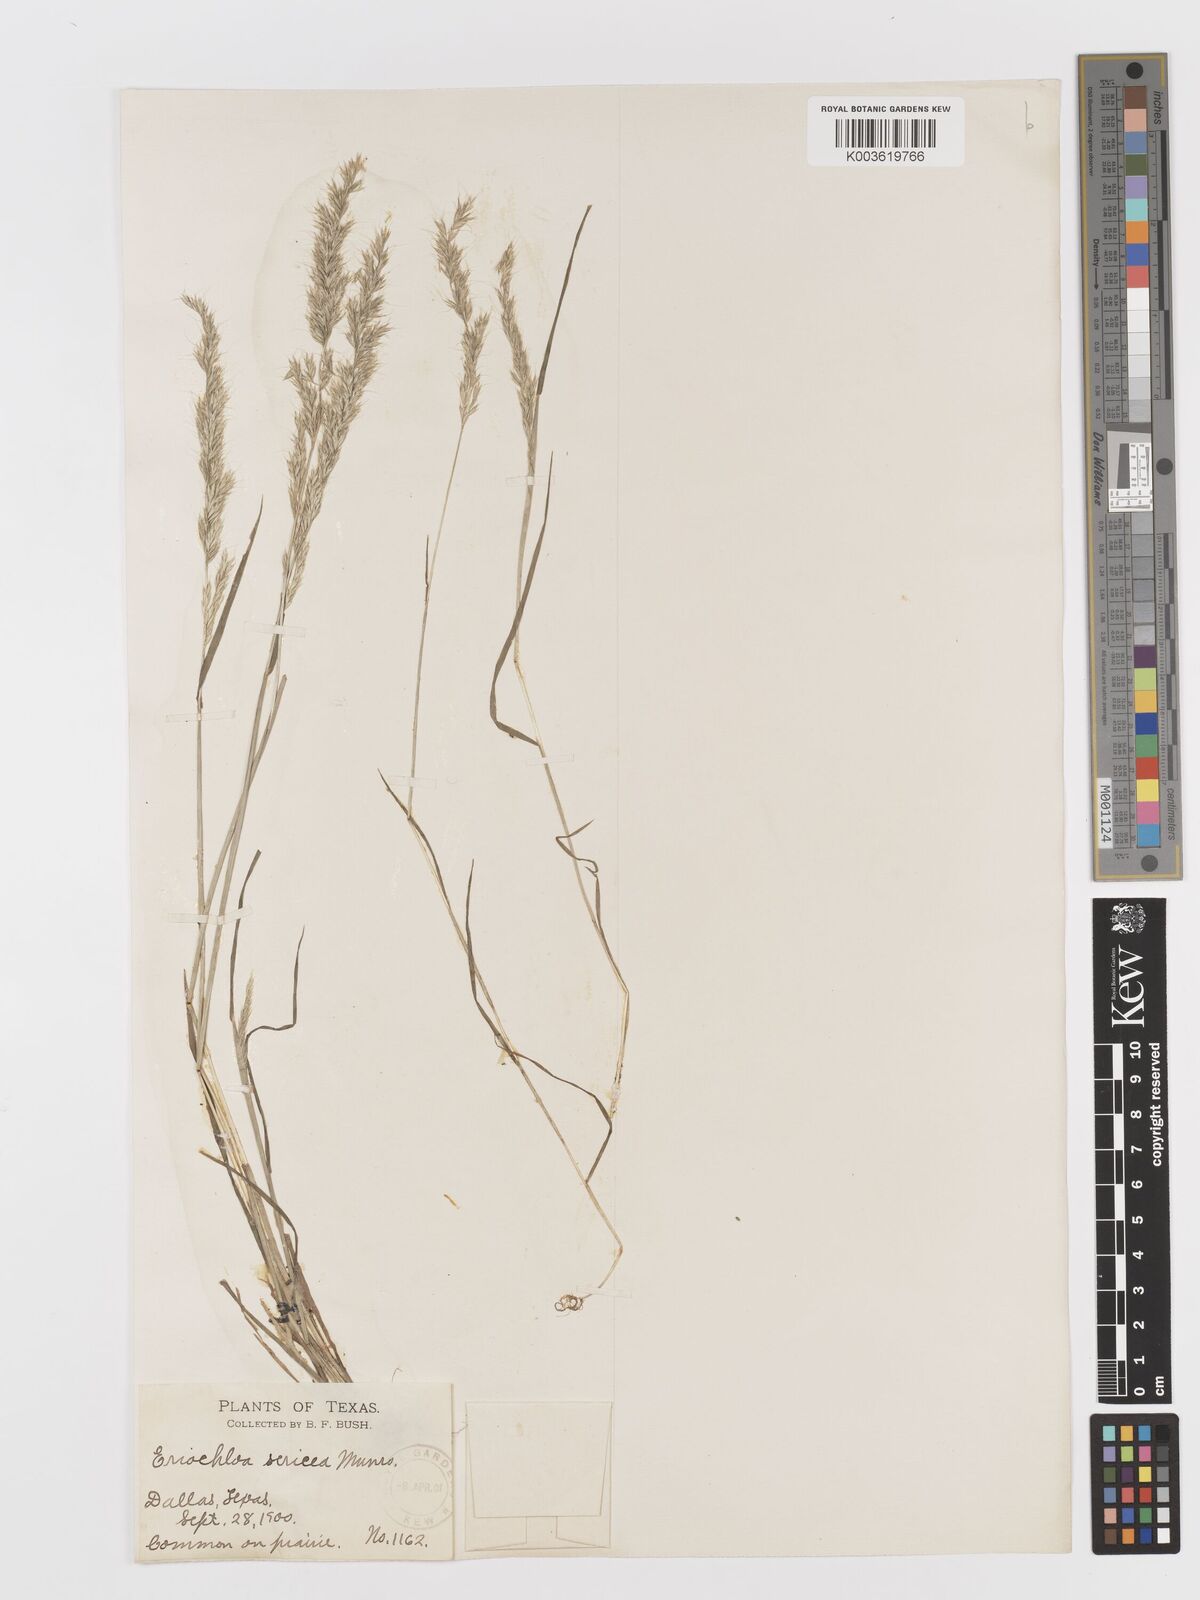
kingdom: Plantae
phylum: Tracheophyta
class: Liliopsida
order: Poales
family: Poaceae
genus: Sphenopholis
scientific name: Sphenopholis interrupta
